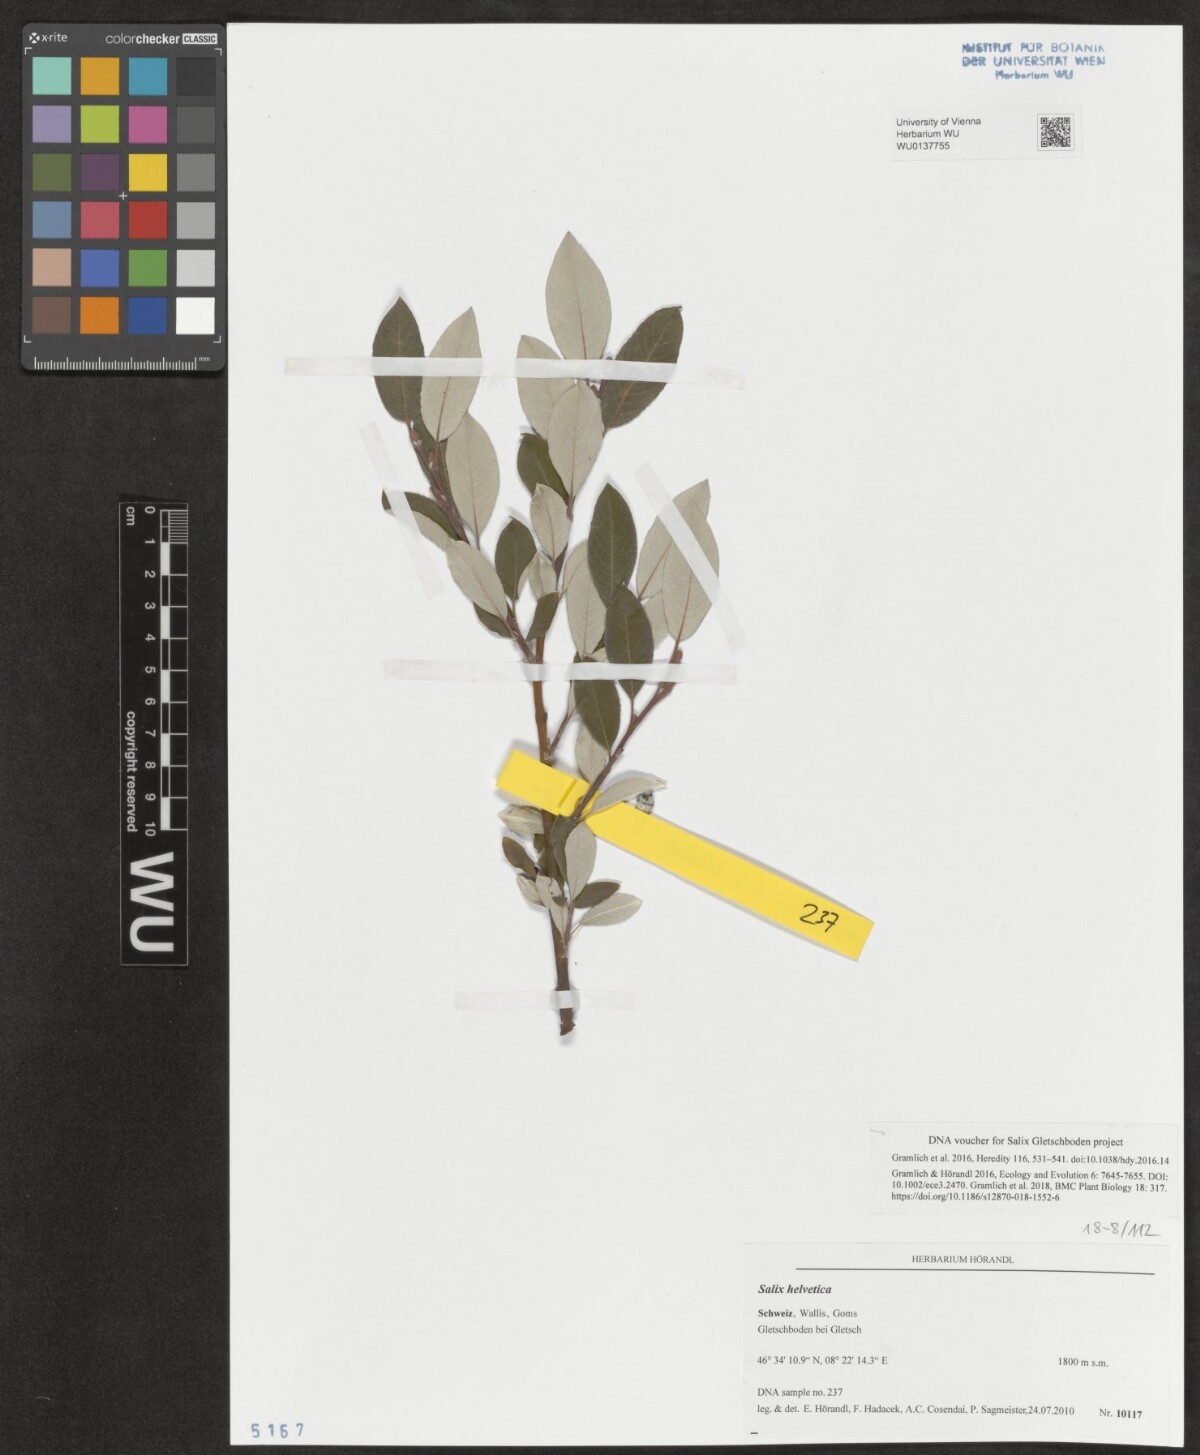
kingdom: Plantae
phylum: Tracheophyta
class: Magnoliopsida
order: Malpighiales
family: Salicaceae
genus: Salix
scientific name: Salix helvetica
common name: Swiss willow
